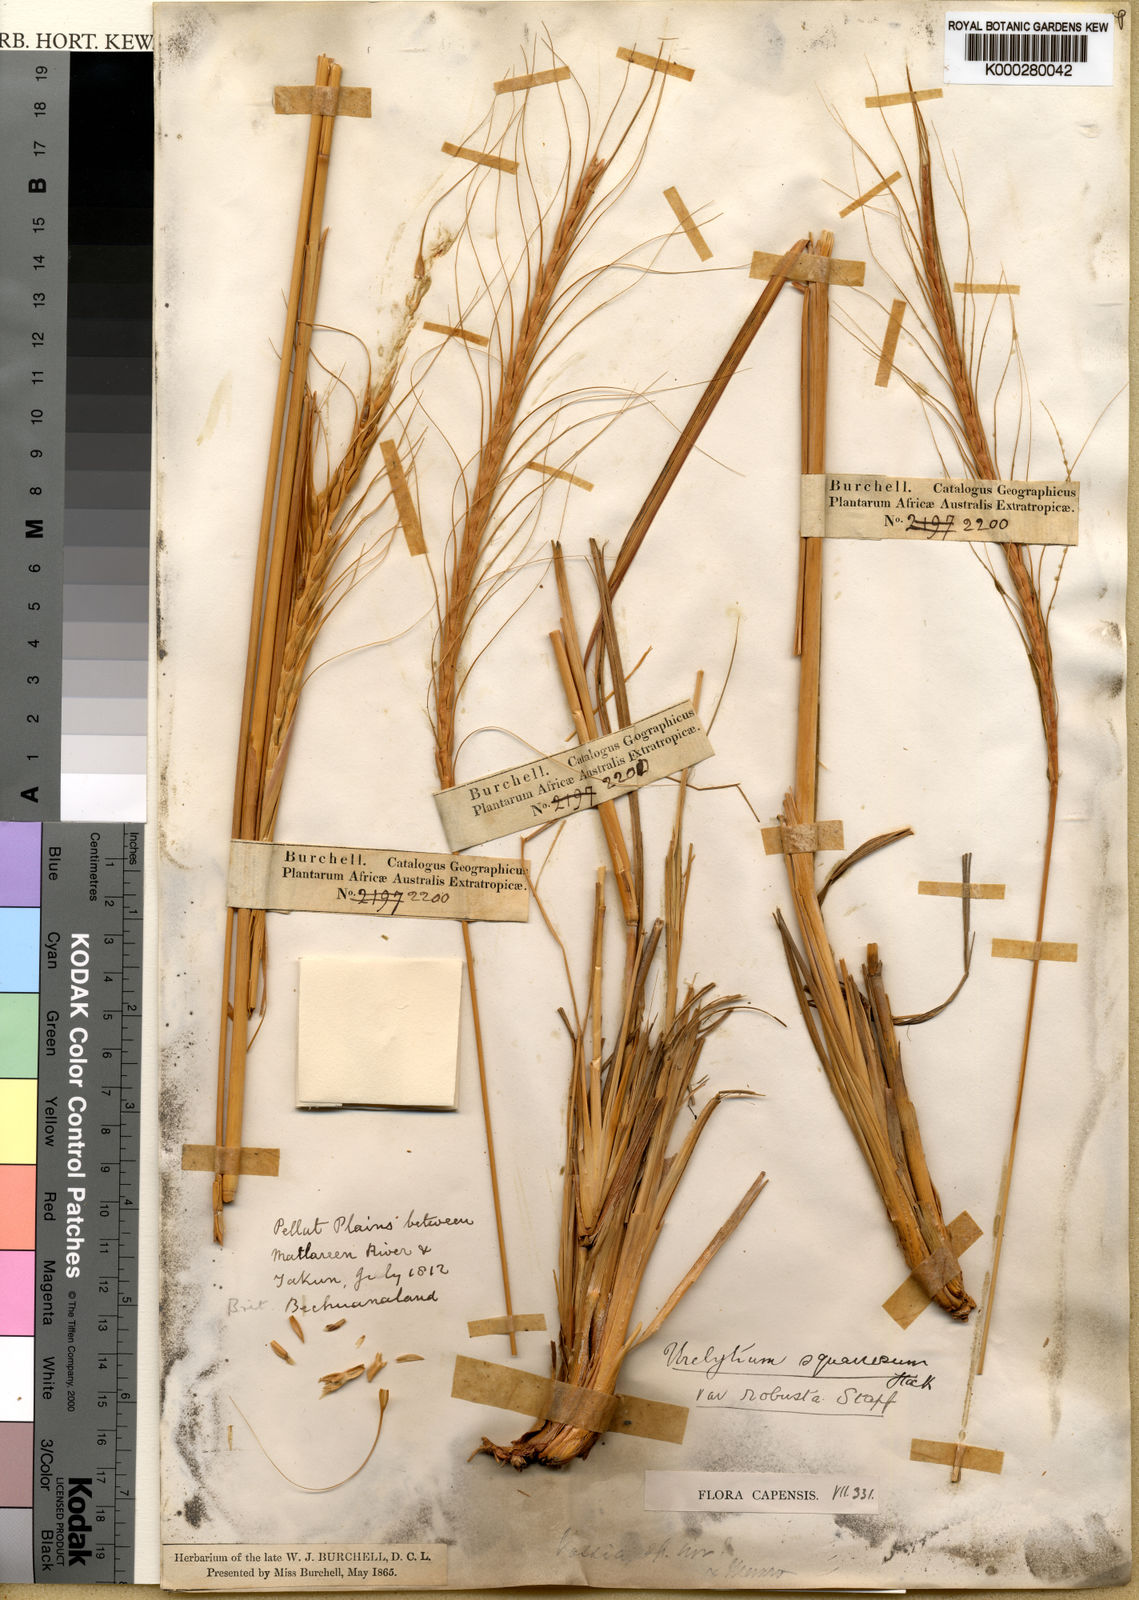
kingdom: Plantae
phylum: Tracheophyta
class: Liliopsida
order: Poales
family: Poaceae
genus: Urelytrum
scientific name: Urelytrum agropyroides
